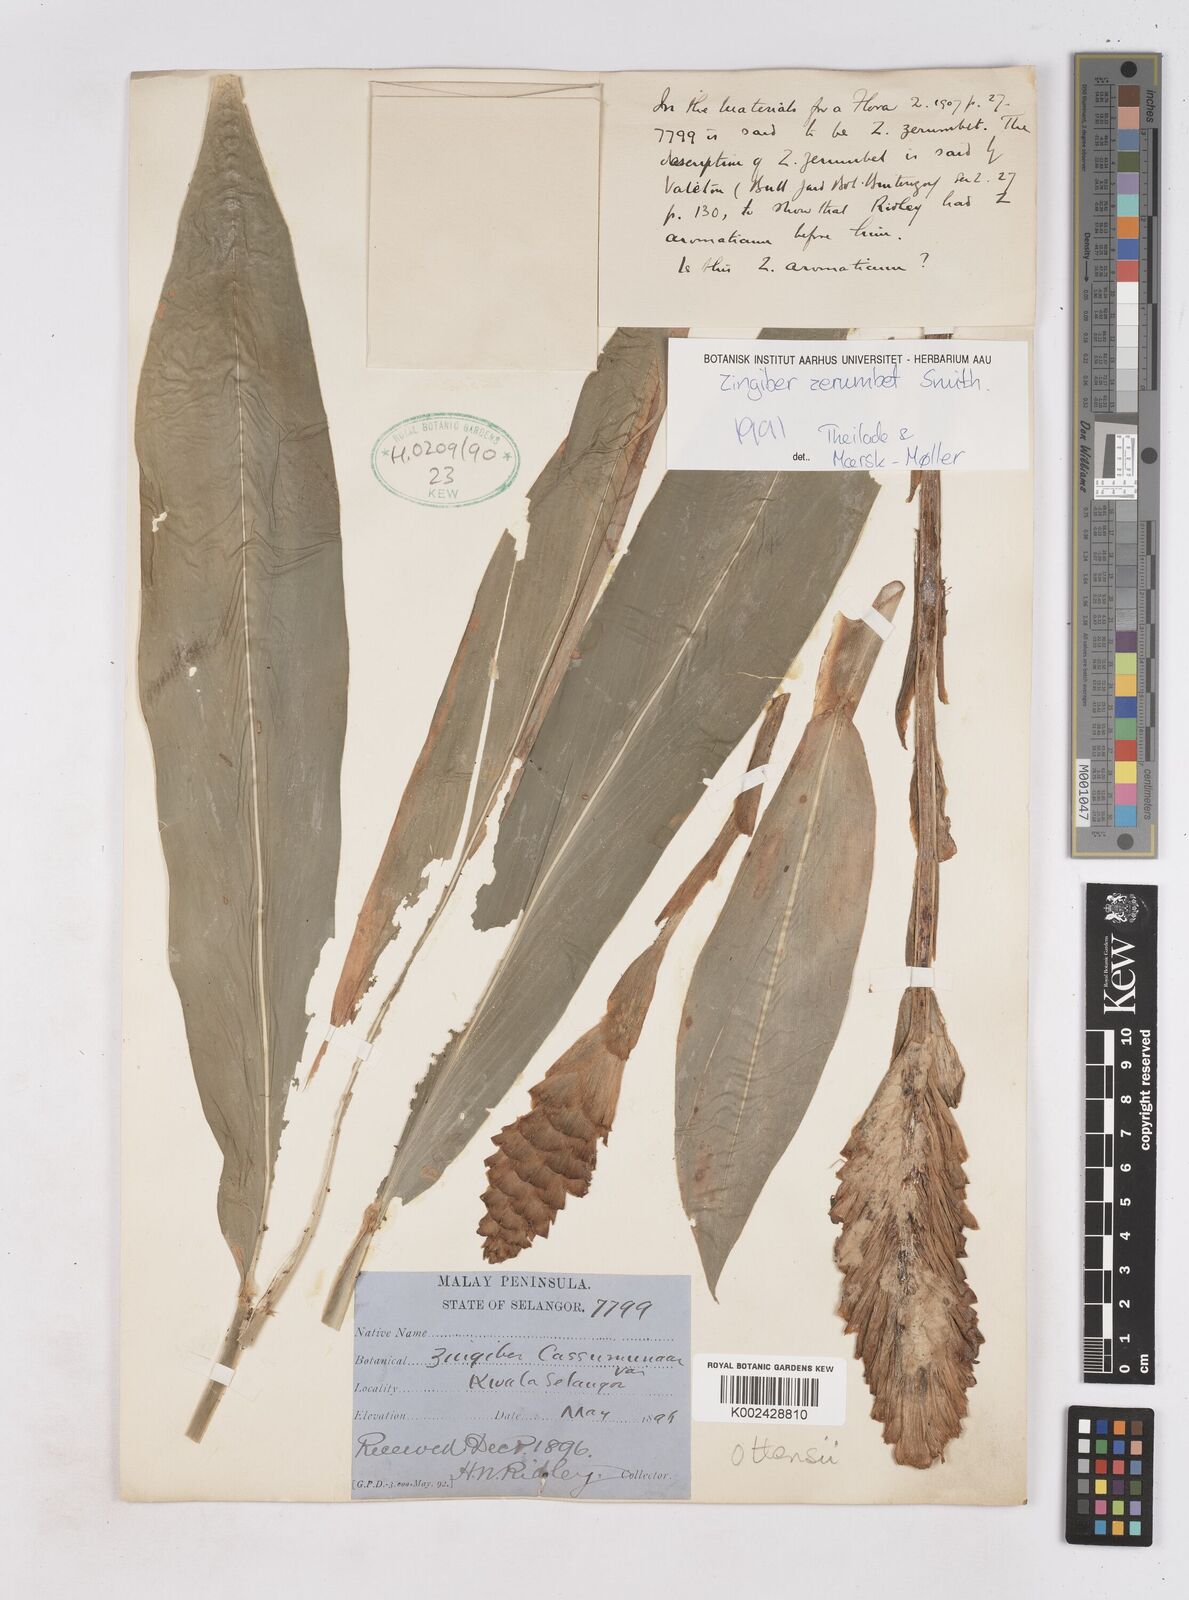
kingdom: Plantae
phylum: Tracheophyta
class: Liliopsida
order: Zingiberales
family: Zingiberaceae
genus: Zingiber
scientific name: Zingiber zerumbet
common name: Bitter ginger
